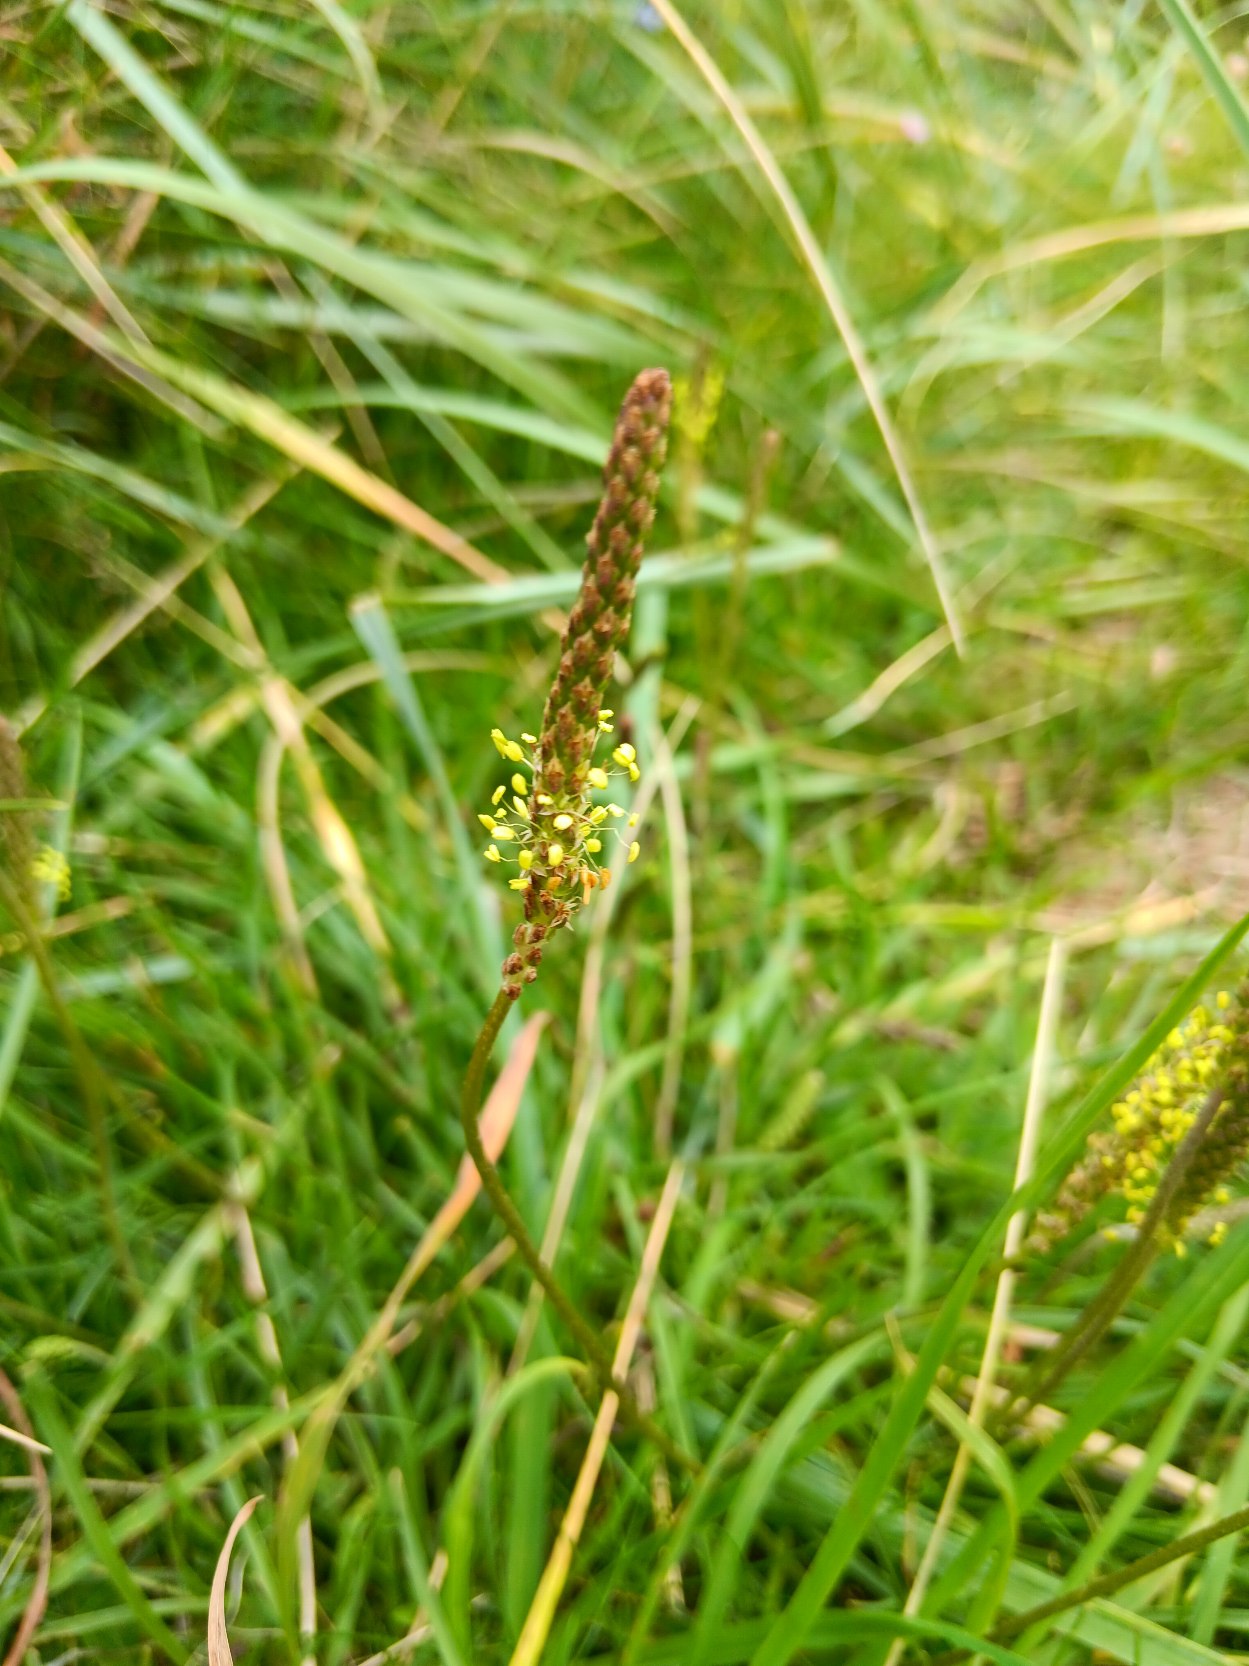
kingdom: Plantae
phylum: Tracheophyta
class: Magnoliopsida
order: Lamiales
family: Plantaginaceae
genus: Plantago
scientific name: Plantago maritima
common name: Strand-vejbred
